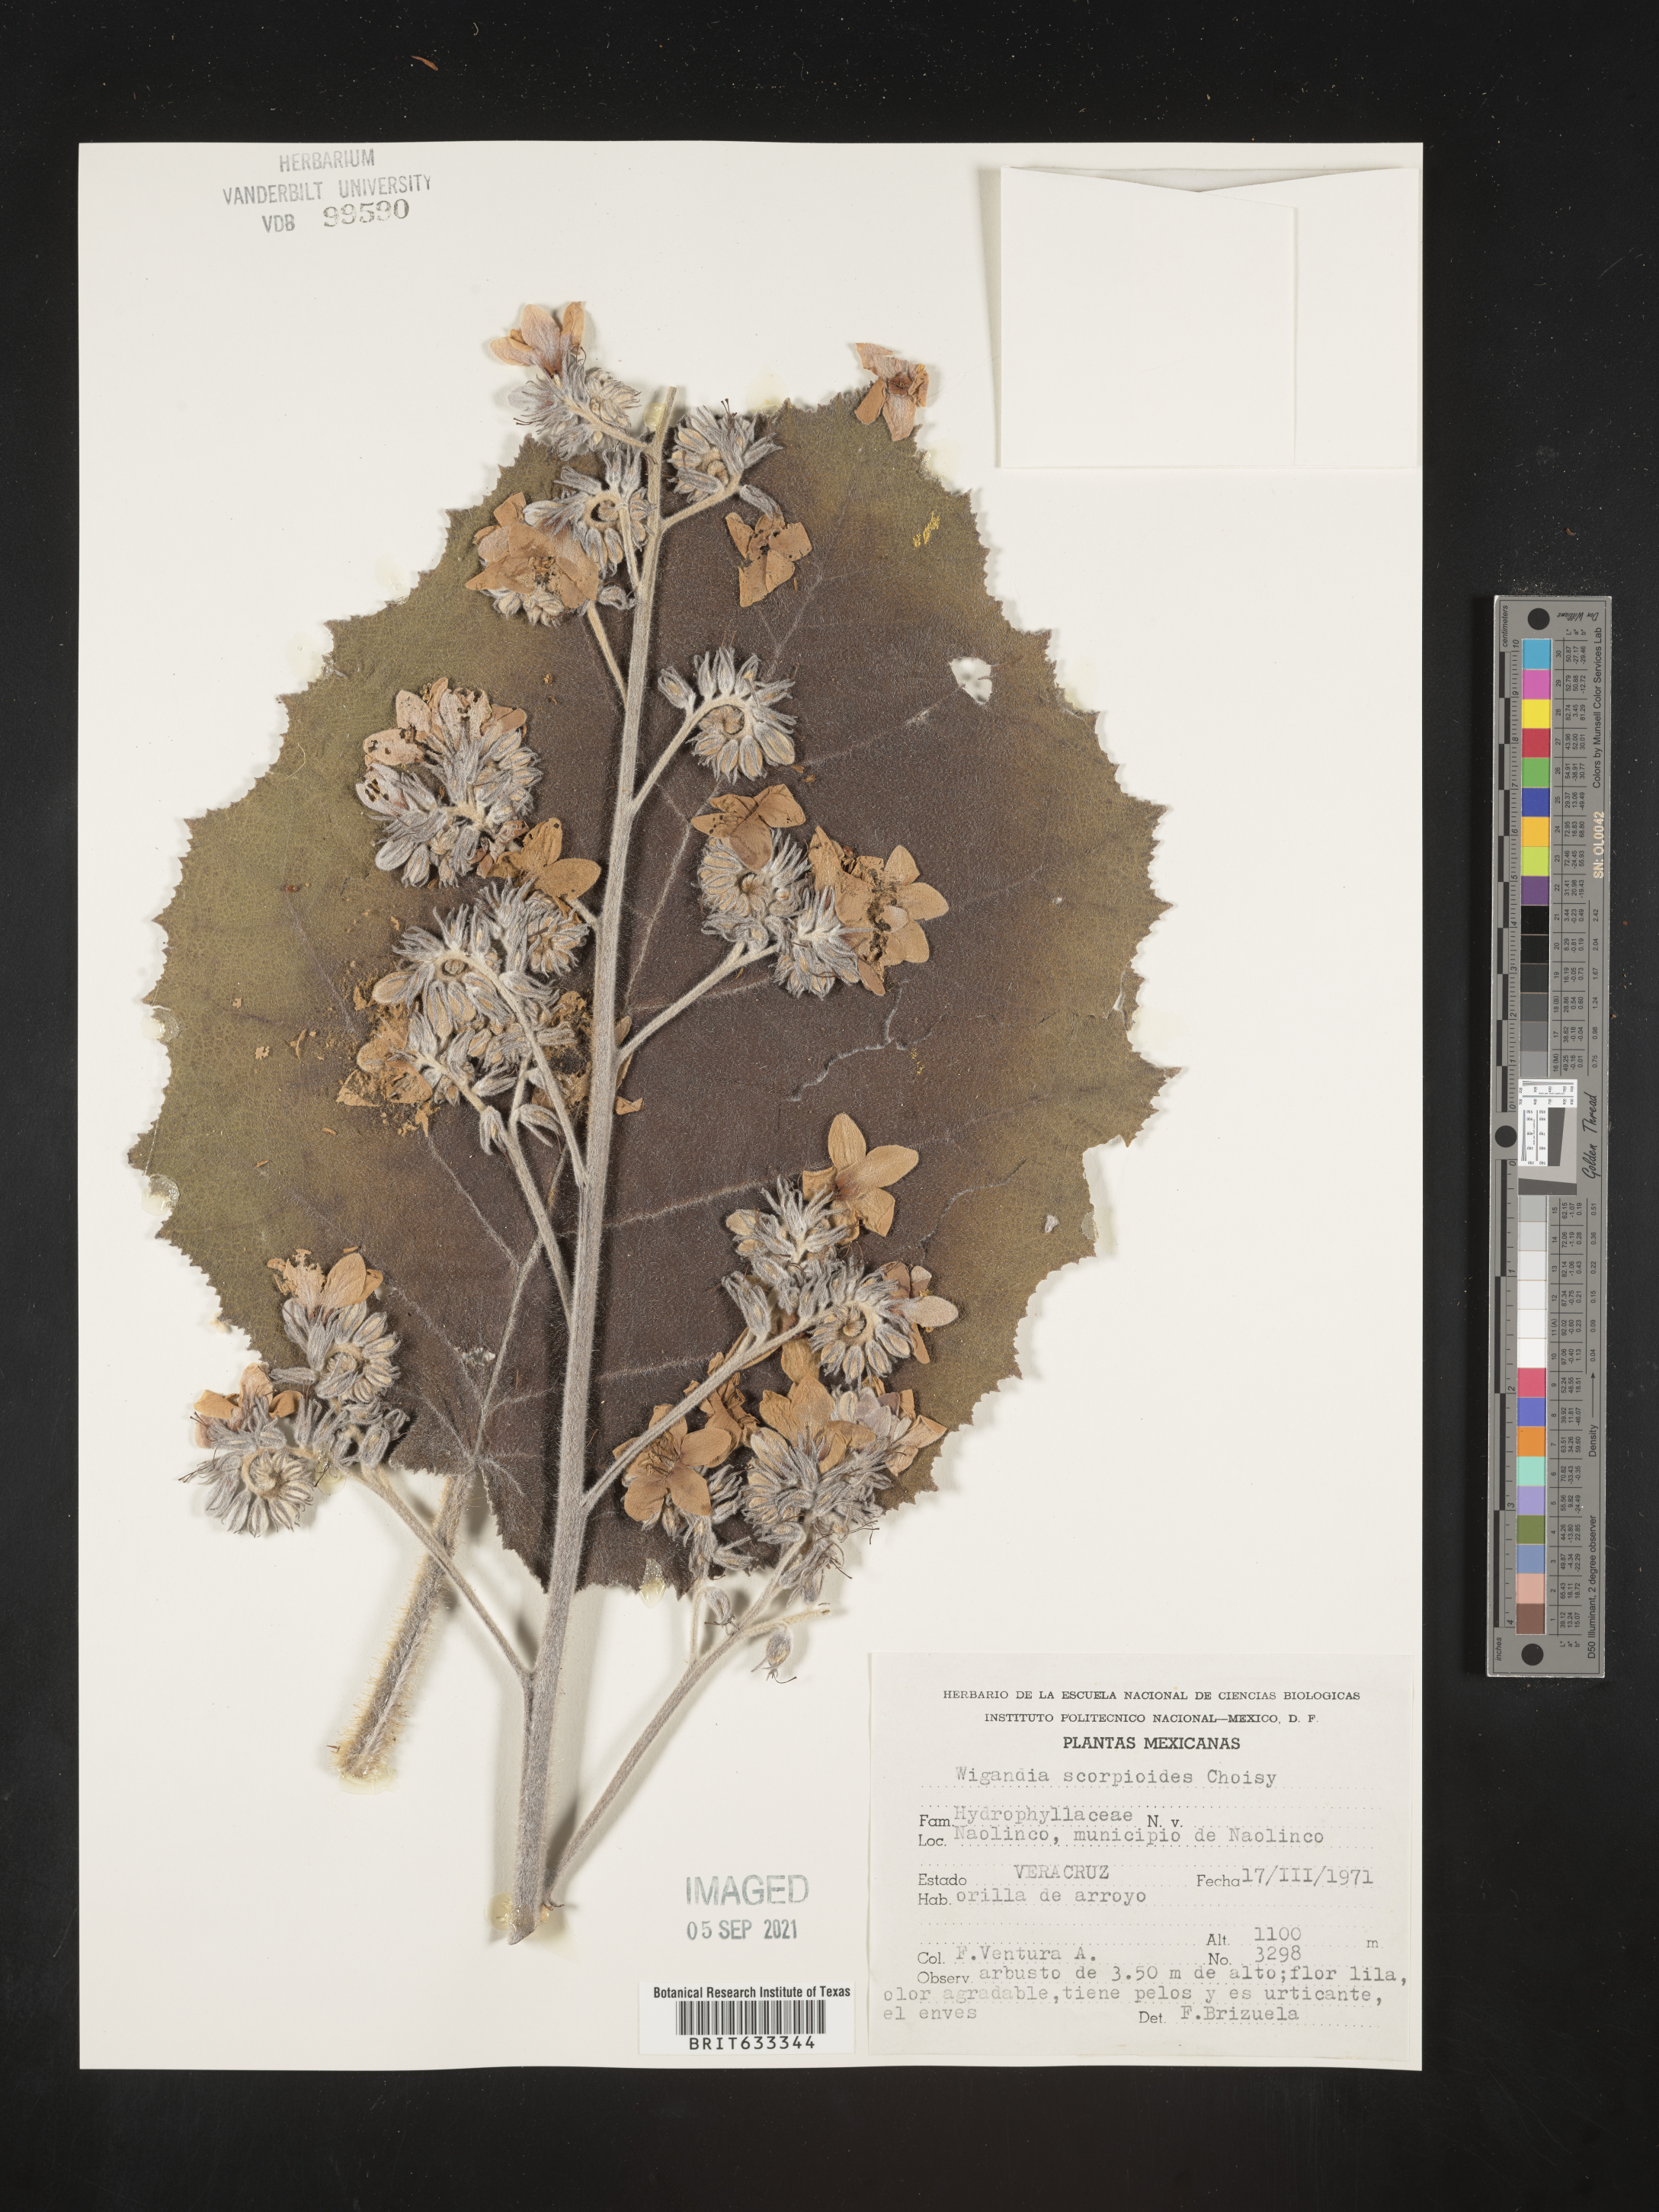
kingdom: Plantae
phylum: Tracheophyta
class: Magnoliopsida
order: Boraginales
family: Hydrophyllaceae
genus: Wiganda
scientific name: Wiganda
